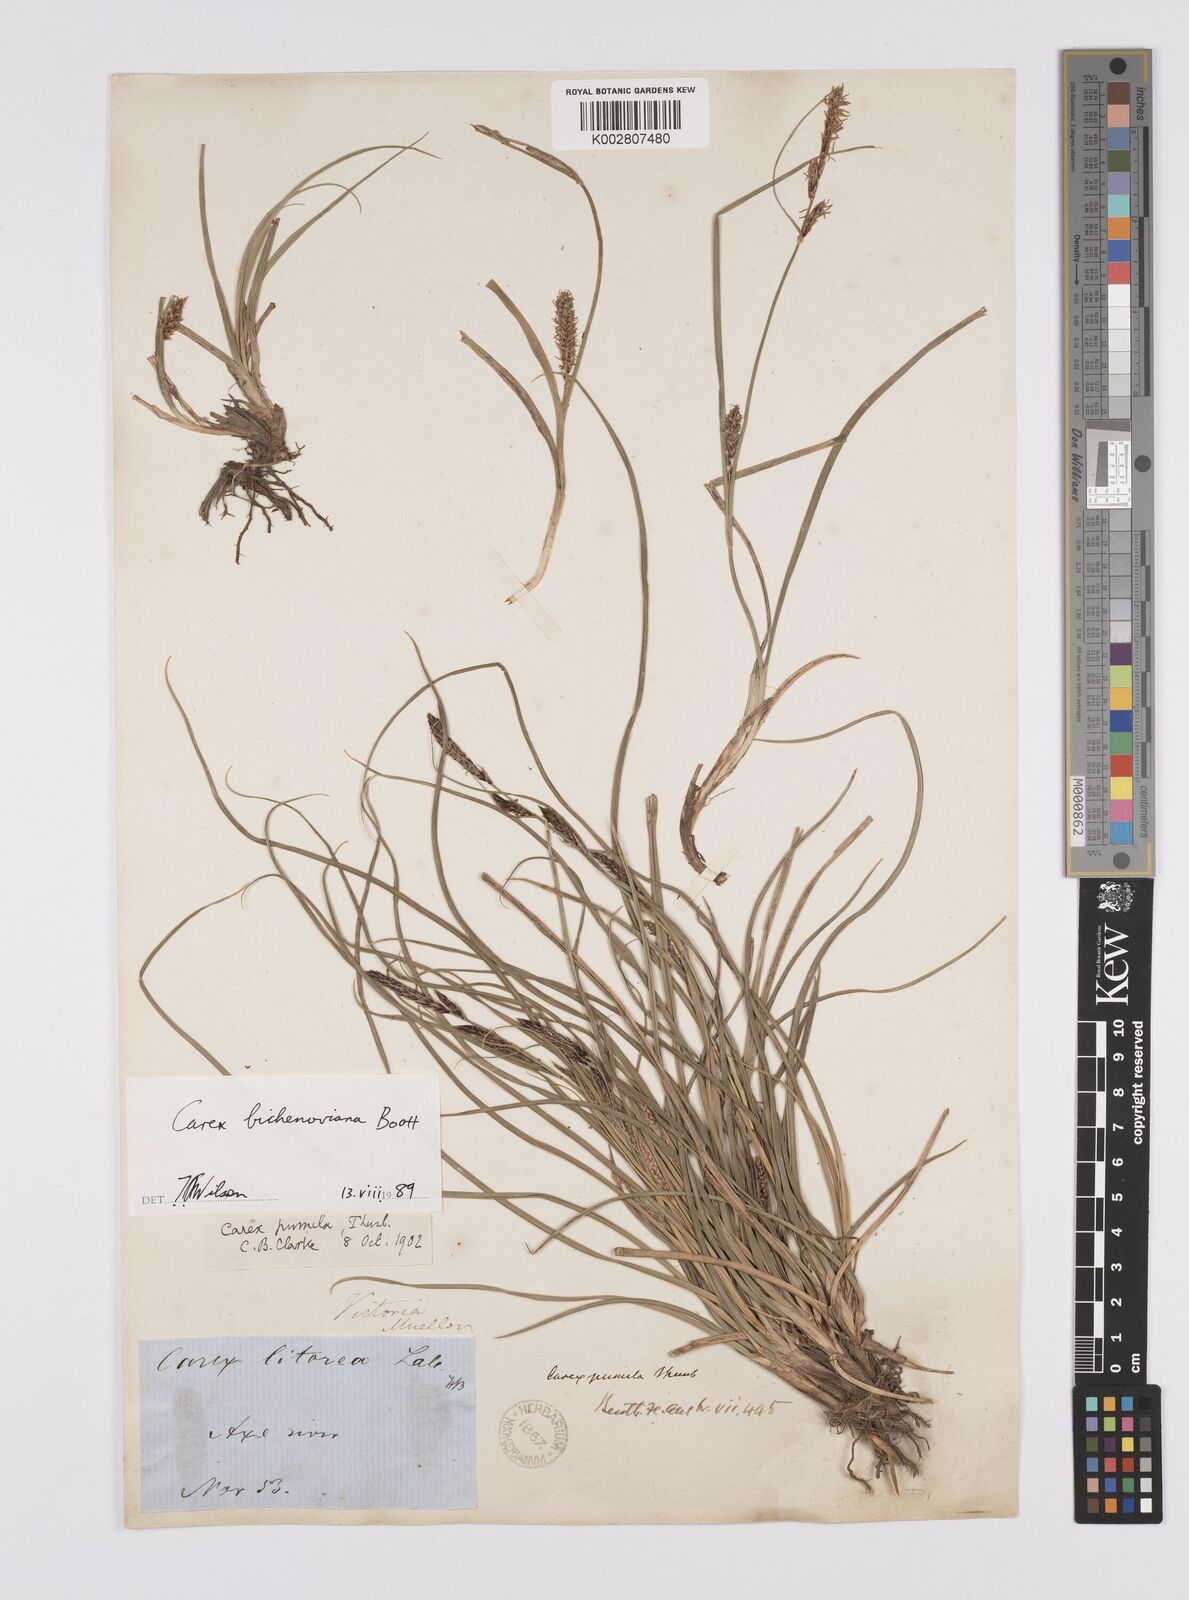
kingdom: Plantae
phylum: Tracheophyta
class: Liliopsida
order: Poales
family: Cyperaceae
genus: Carex
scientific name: Carex bichenoviana
